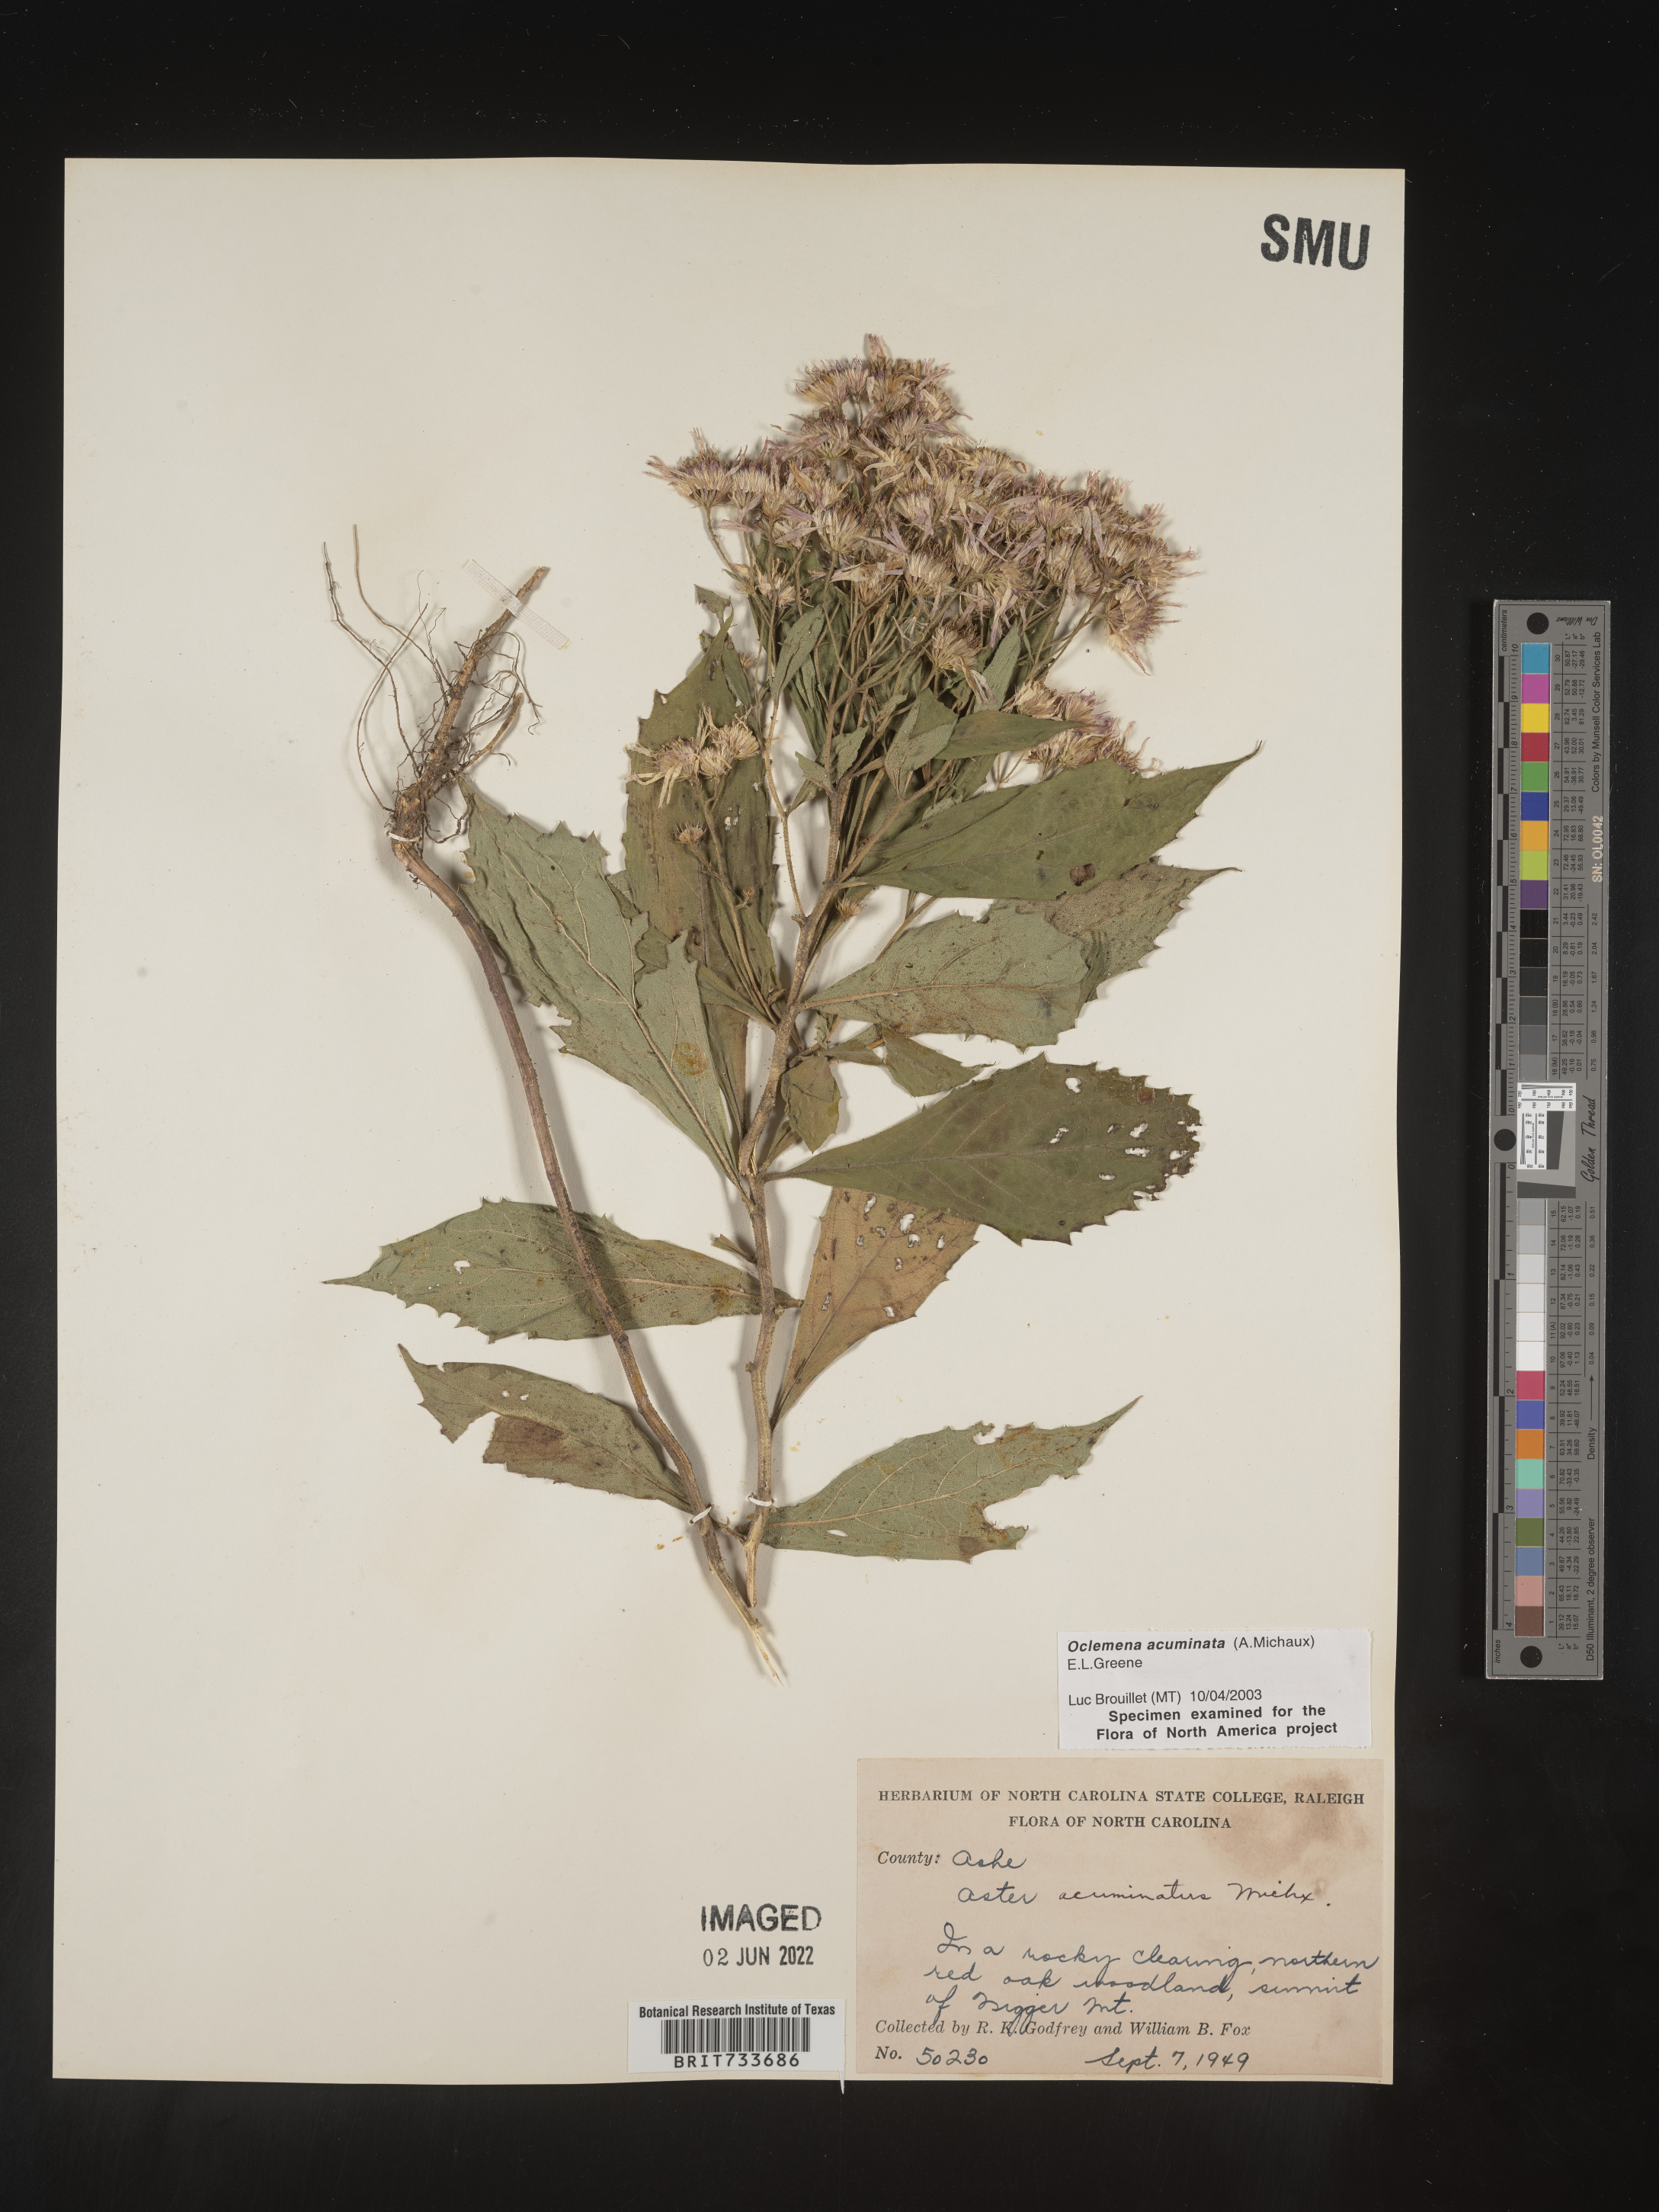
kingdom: Plantae
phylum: Tracheophyta
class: Magnoliopsida
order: Asterales
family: Asteraceae
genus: Oclemena
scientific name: Oclemena acuminata
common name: Mountain aster
